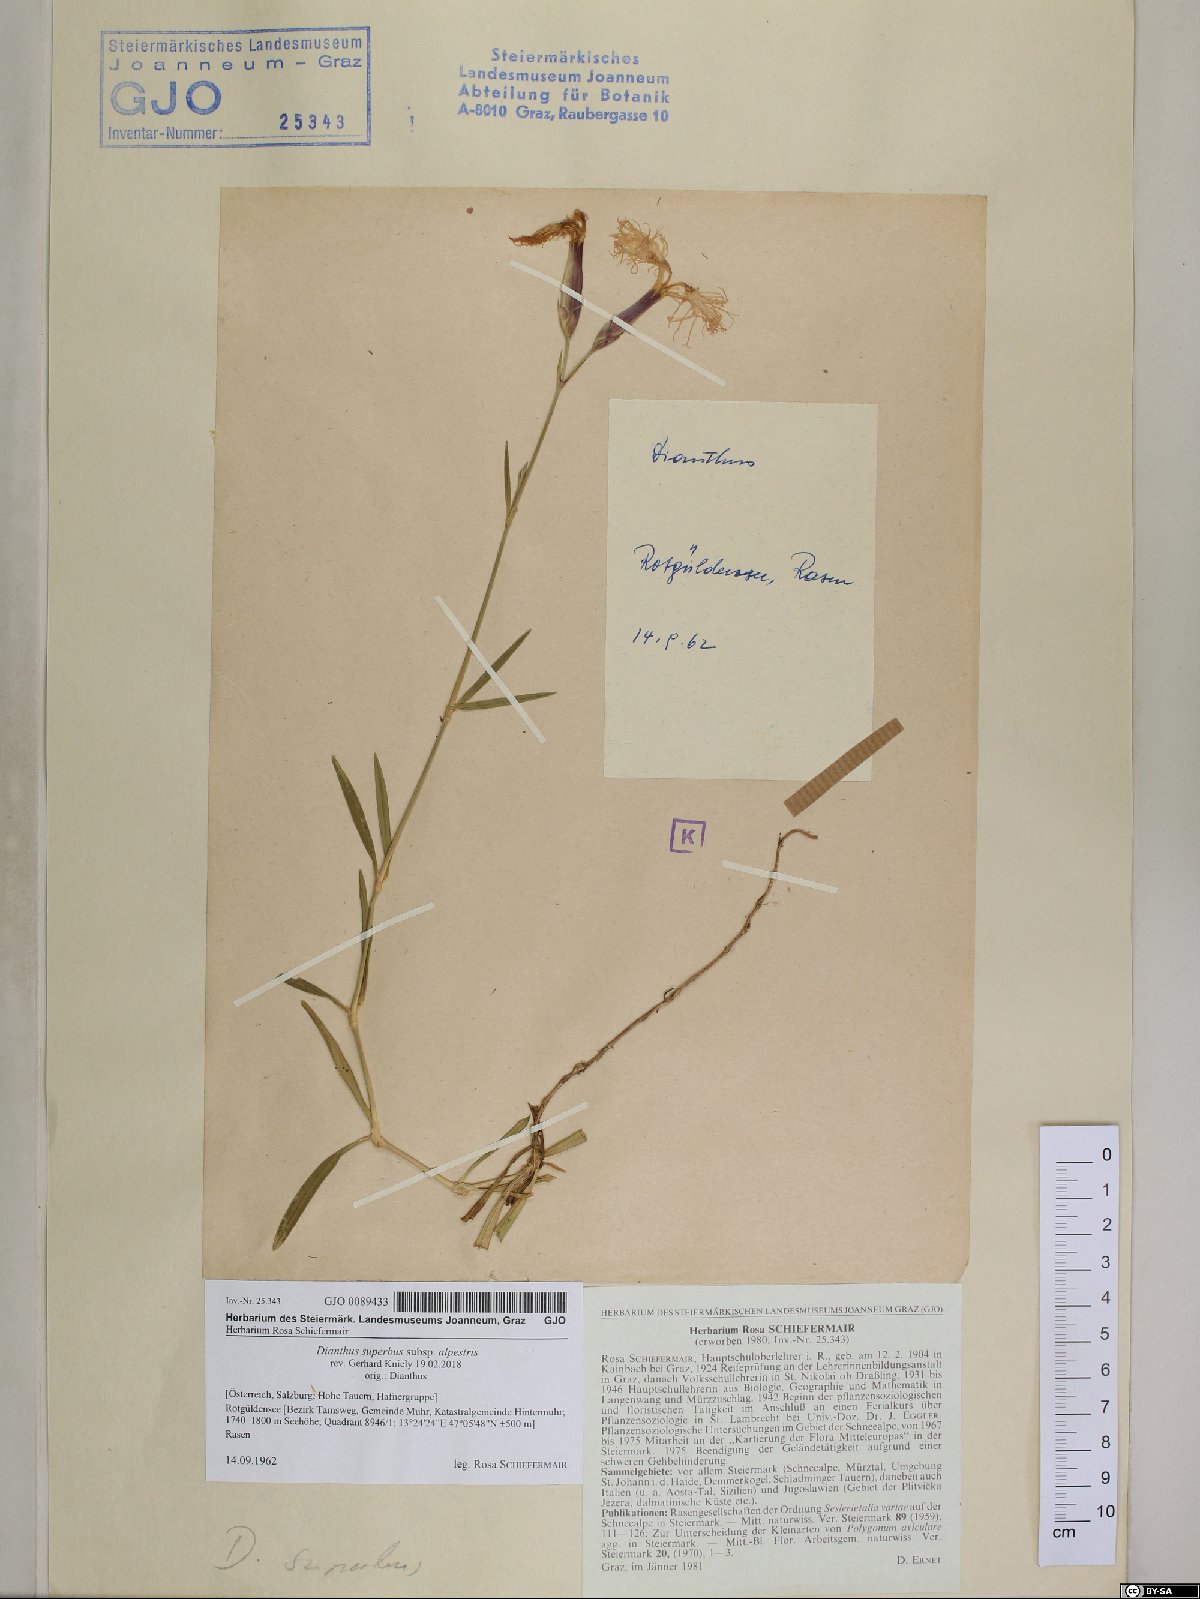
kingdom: Plantae
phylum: Tracheophyta
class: Magnoliopsida
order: Caryophyllales
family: Caryophyllaceae
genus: Dianthus
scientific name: Dianthus superbus
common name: Fringed pink
